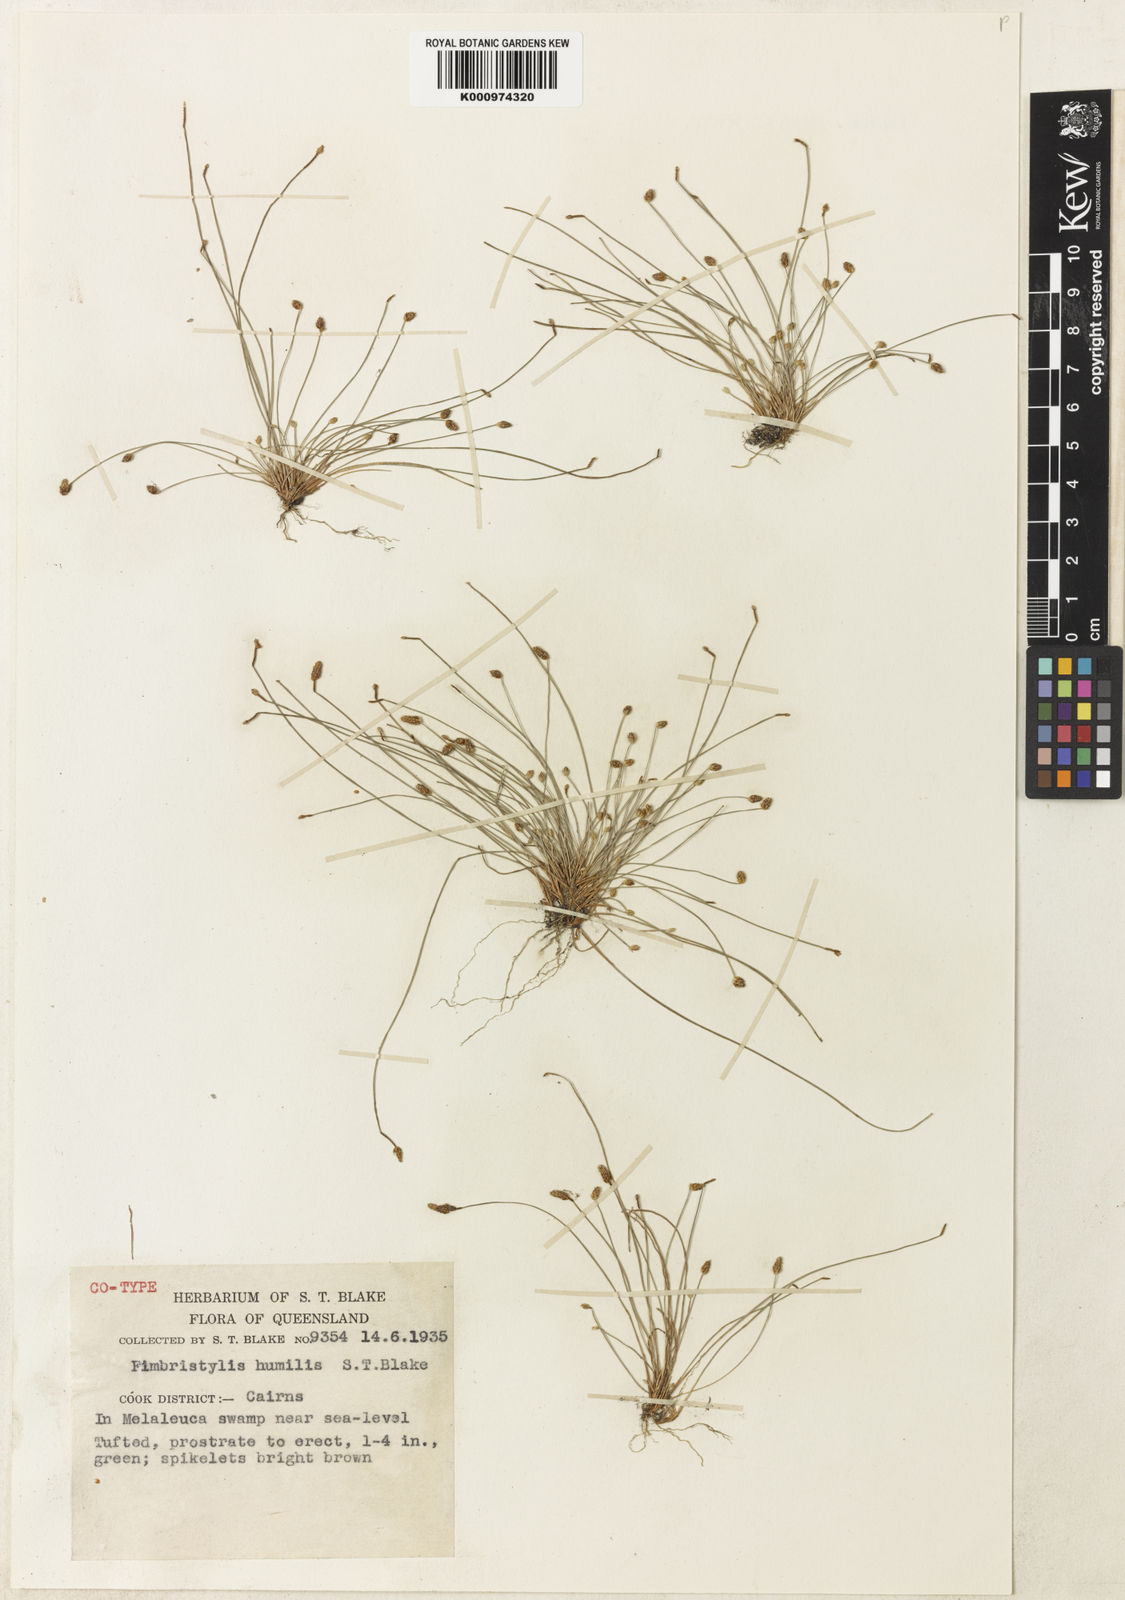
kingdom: Plantae
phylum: Tracheophyta
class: Liliopsida
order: Poales
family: Cyperaceae
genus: Fimbristylis
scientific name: Fimbristylis nuda
